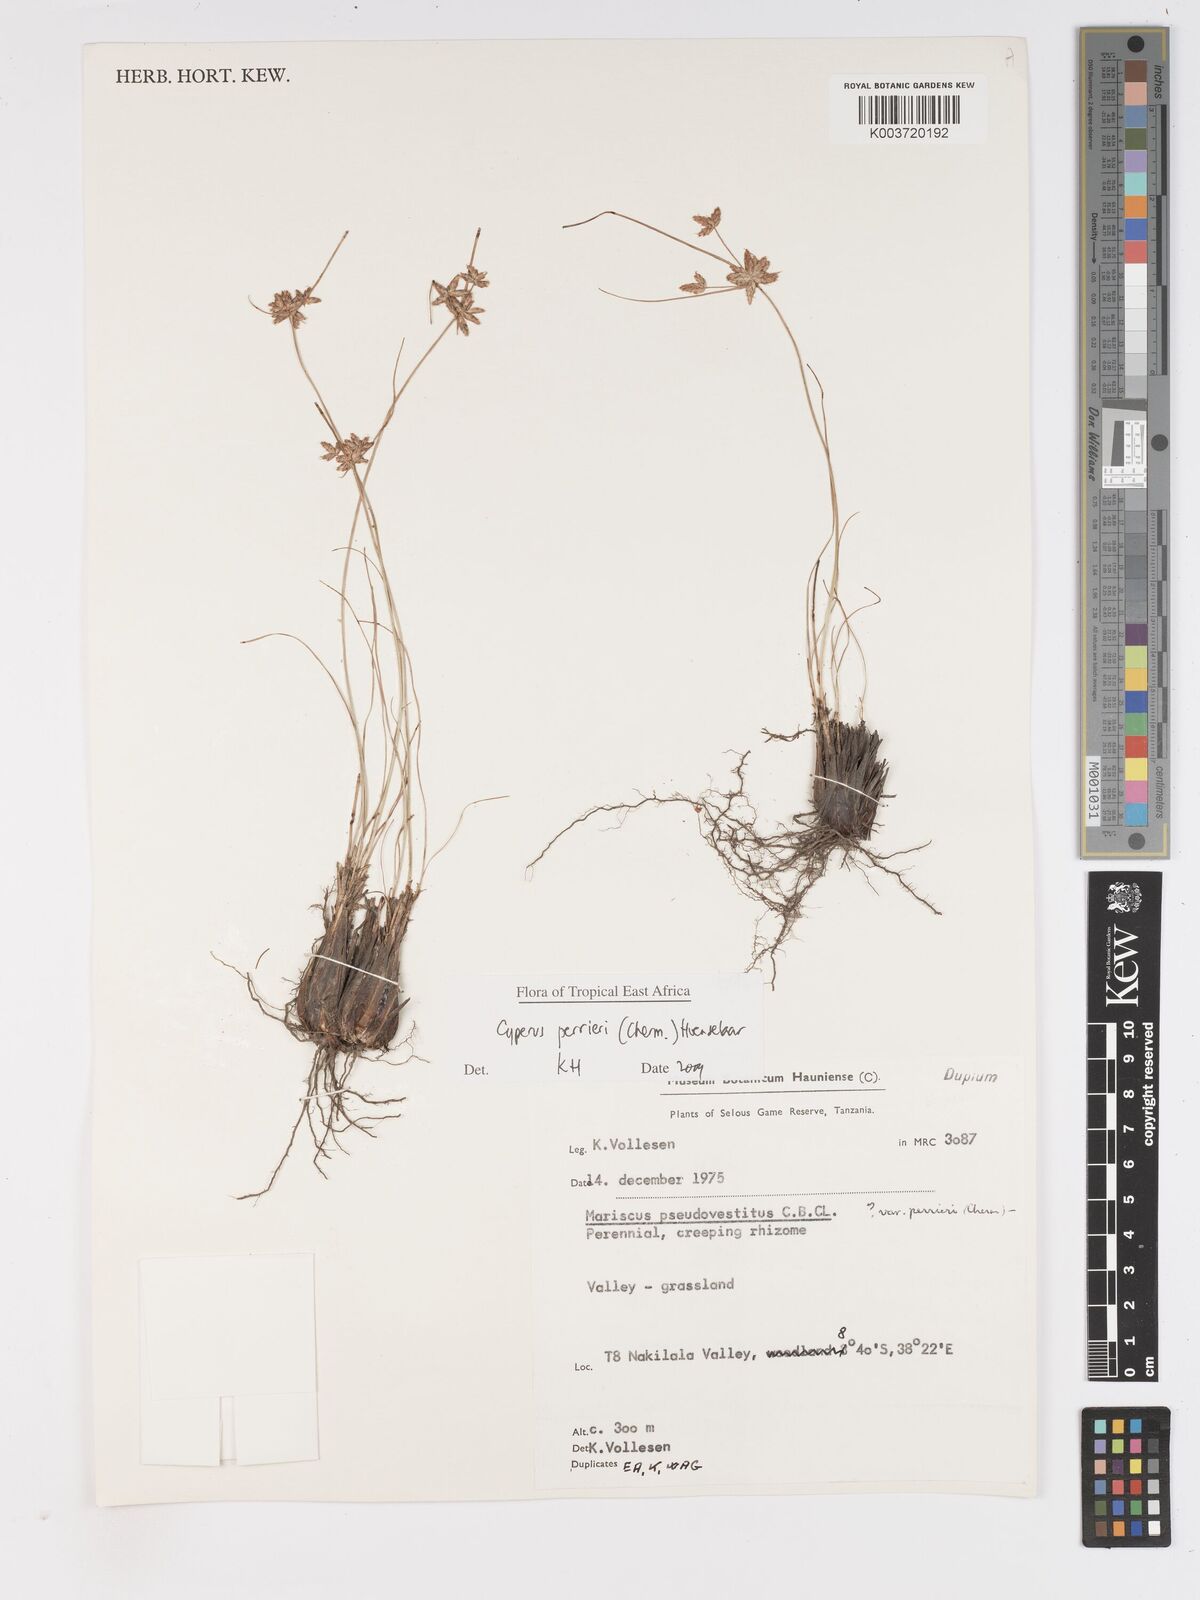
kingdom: Plantae
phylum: Tracheophyta
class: Liliopsida
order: Poales
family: Cyperaceae
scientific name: Cyperaceae
